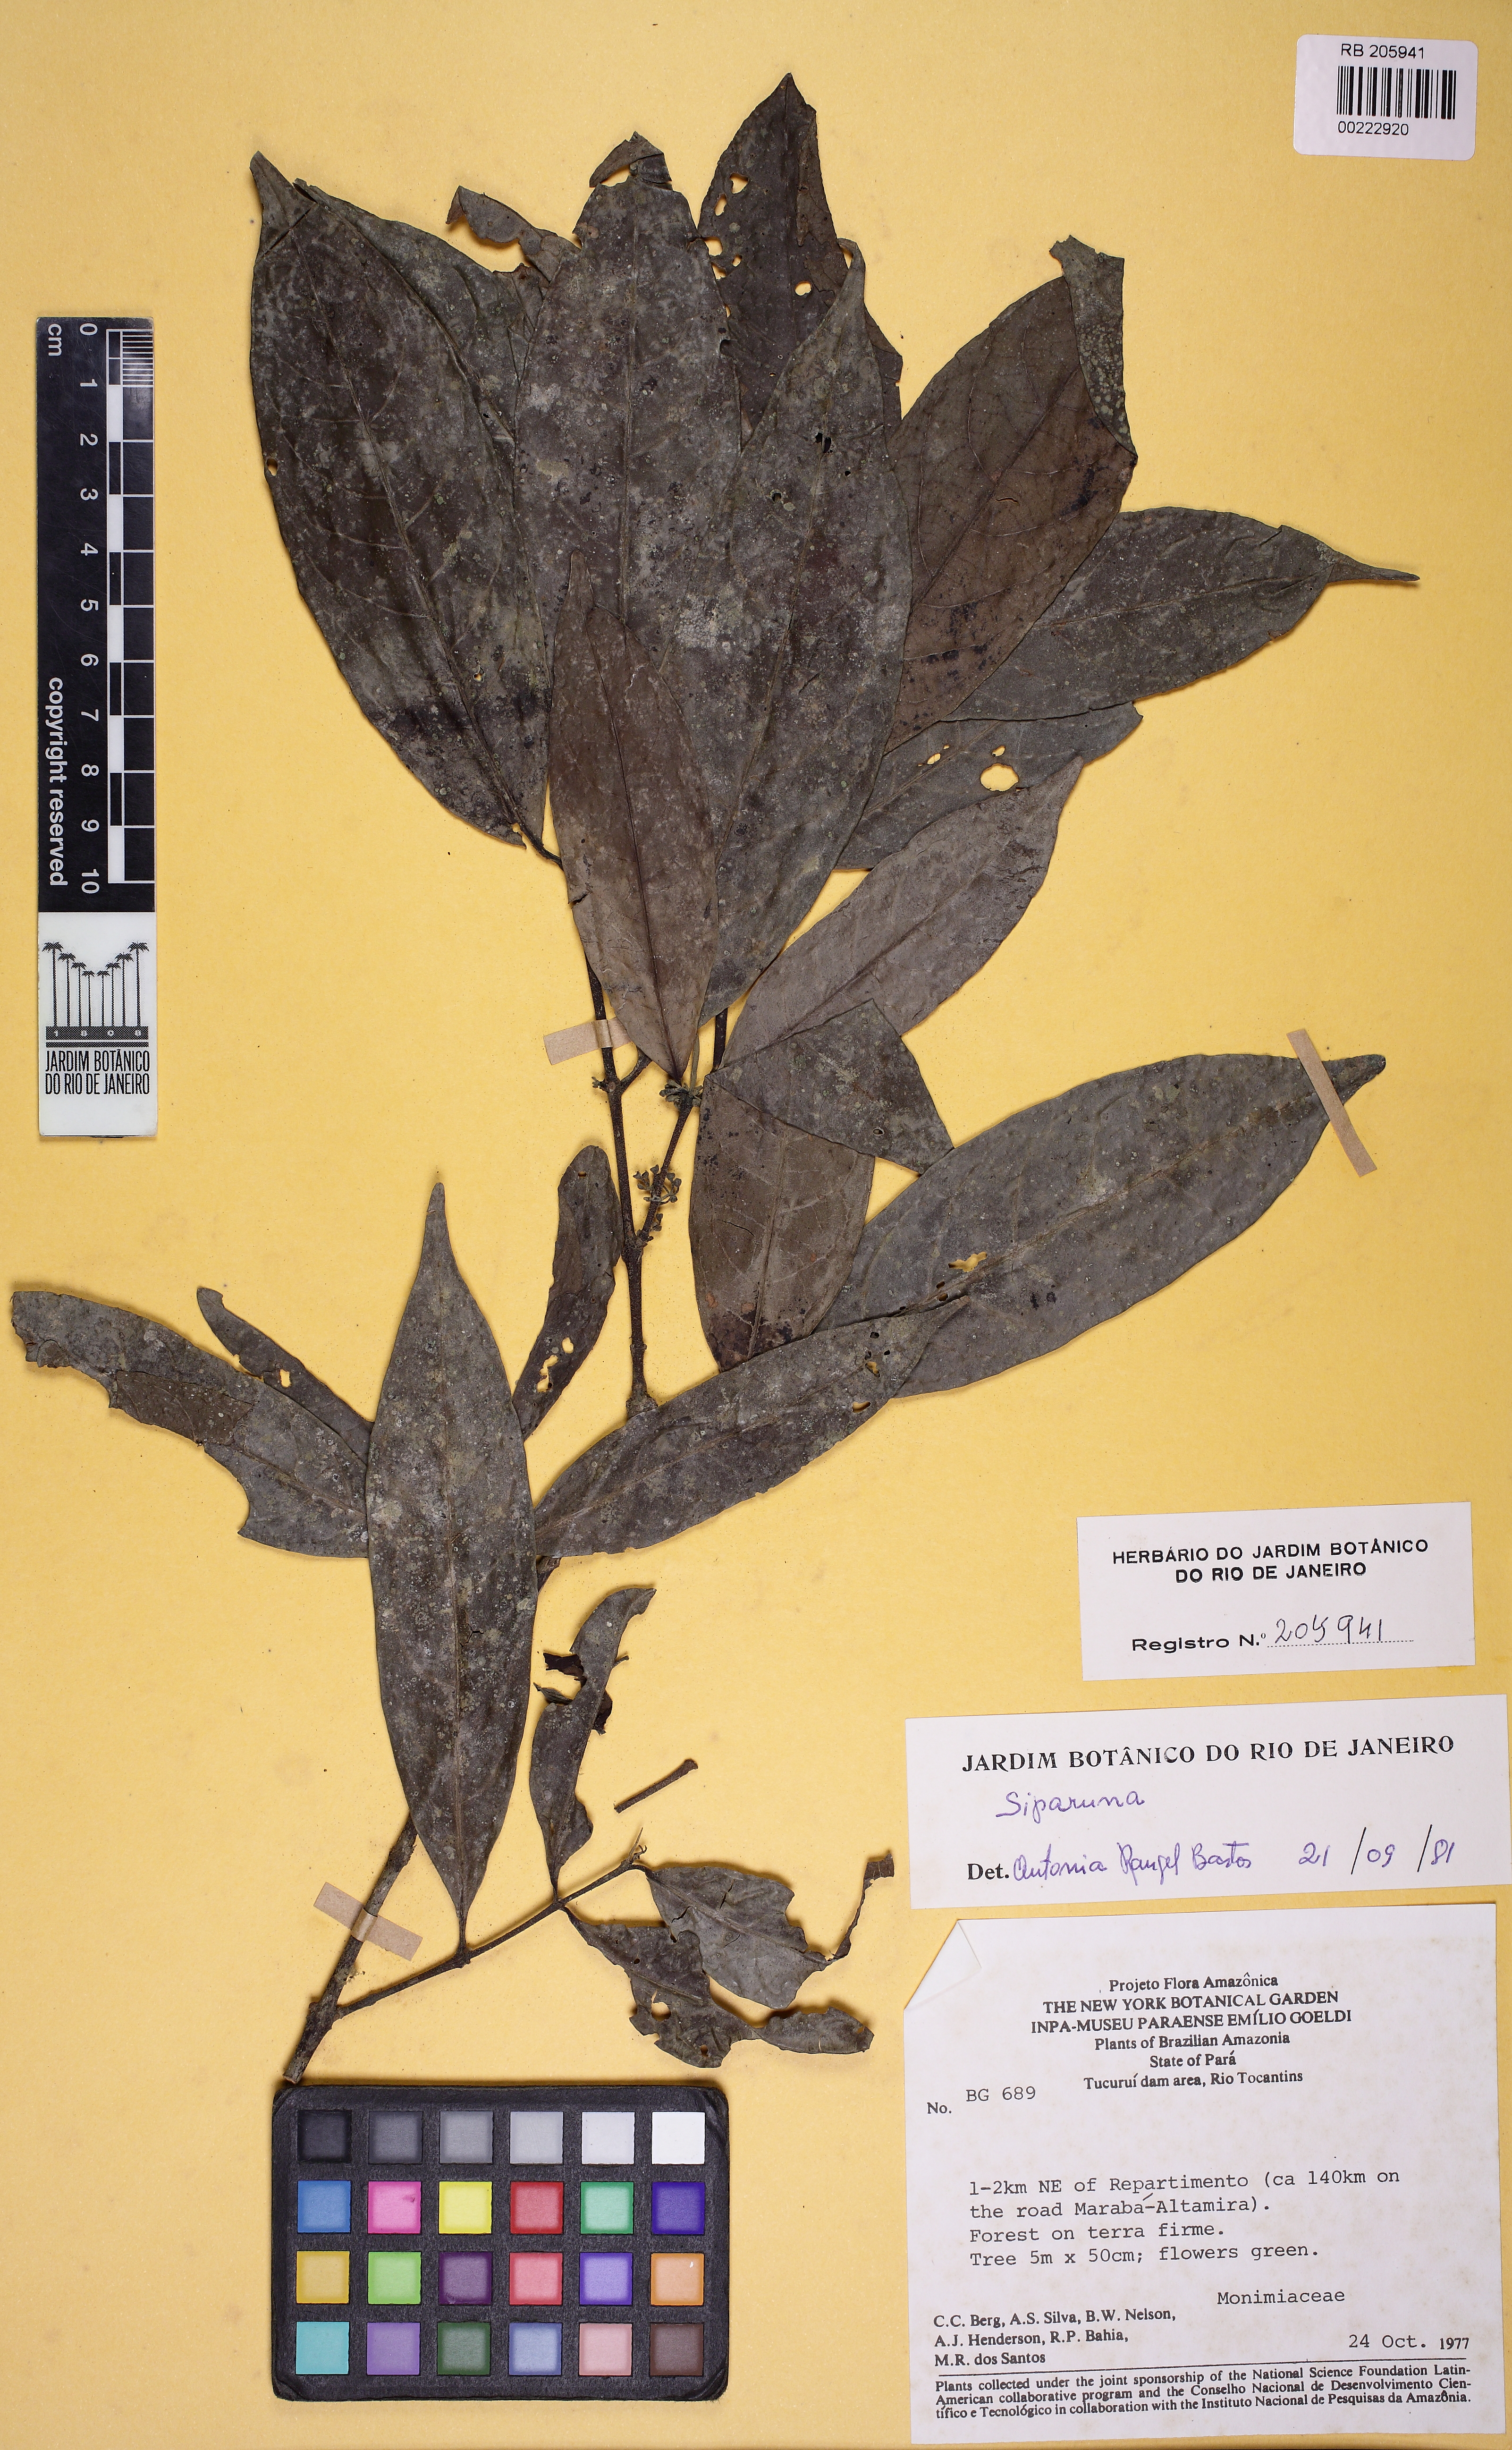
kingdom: Plantae
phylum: Tracheophyta
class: Magnoliopsida
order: Laurales
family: Siparunaceae
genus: Siparuna
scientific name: Siparuna
